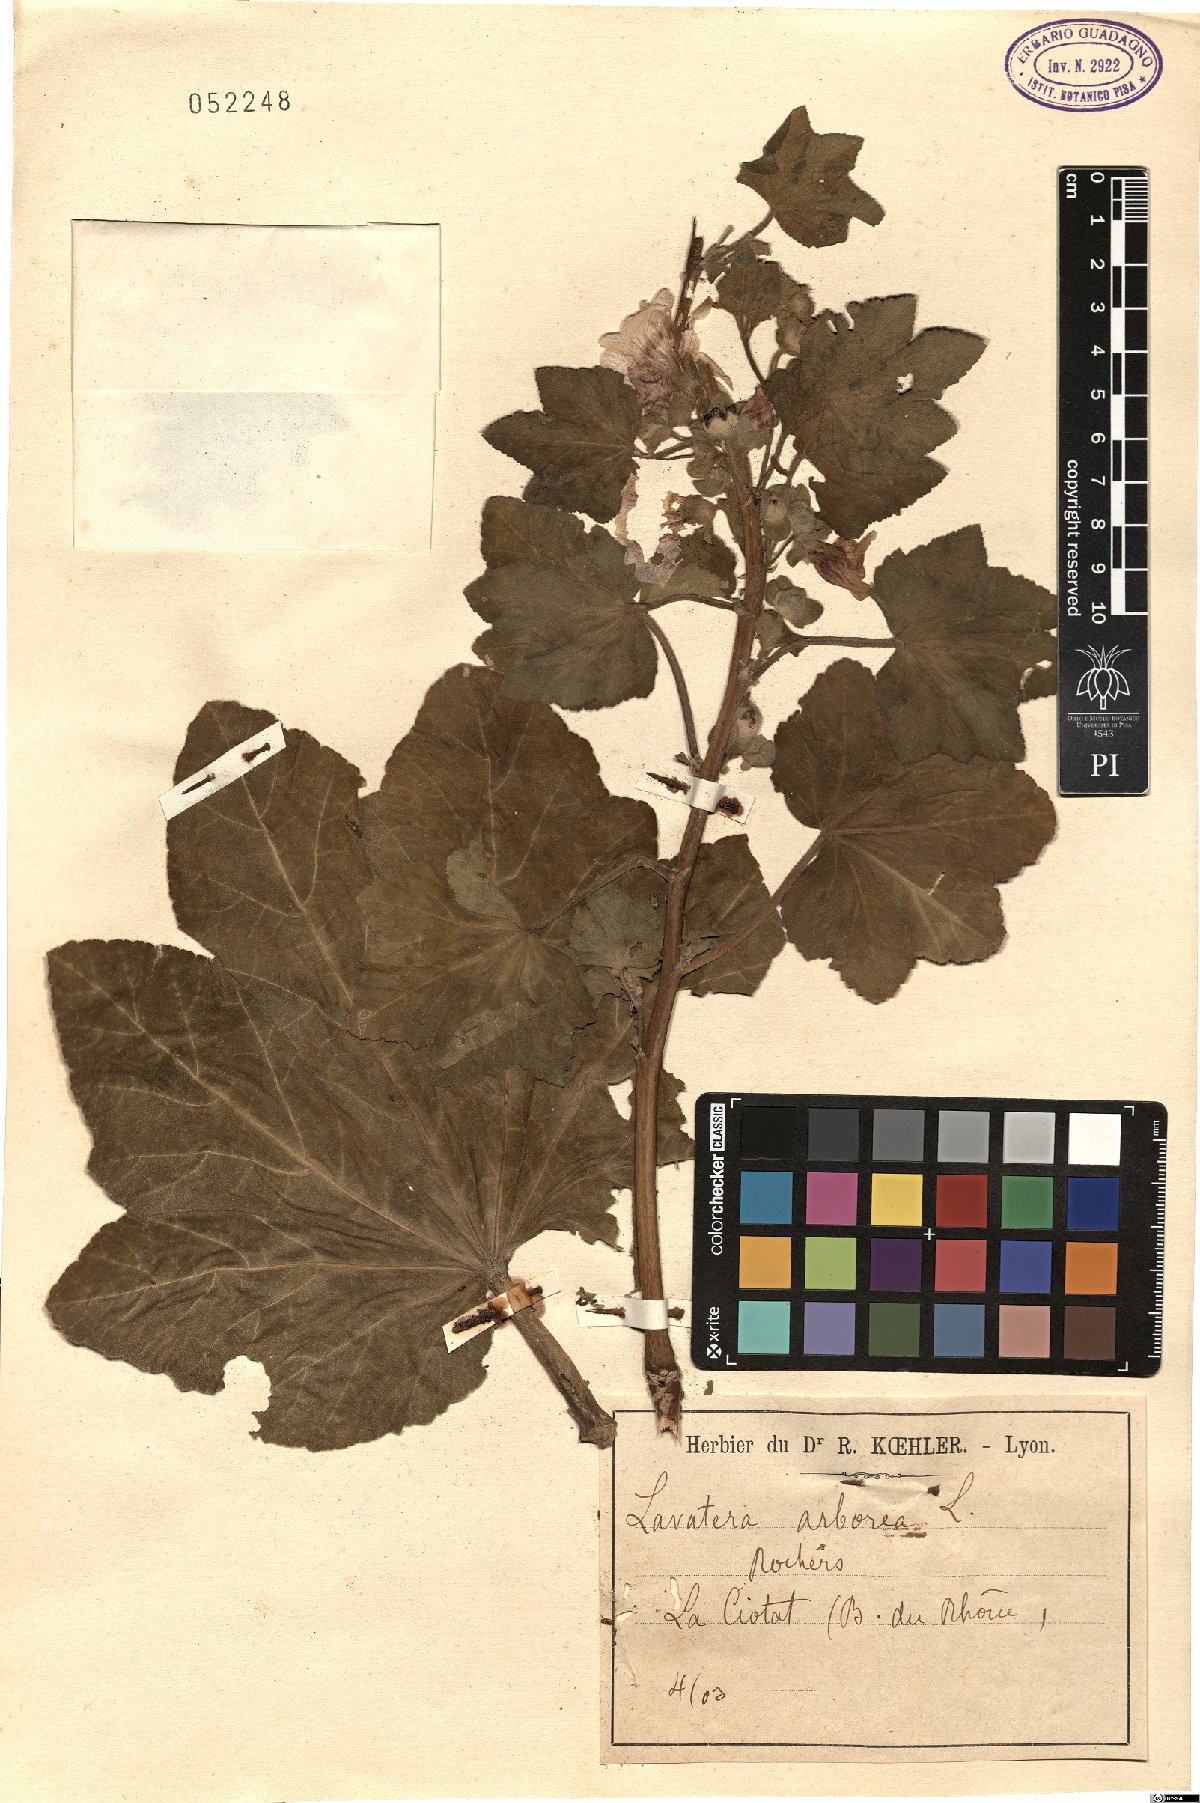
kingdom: Plantae
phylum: Tracheophyta
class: Magnoliopsida
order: Malvales
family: Malvaceae
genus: Malva
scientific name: Malva arborea
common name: Tree mallow
